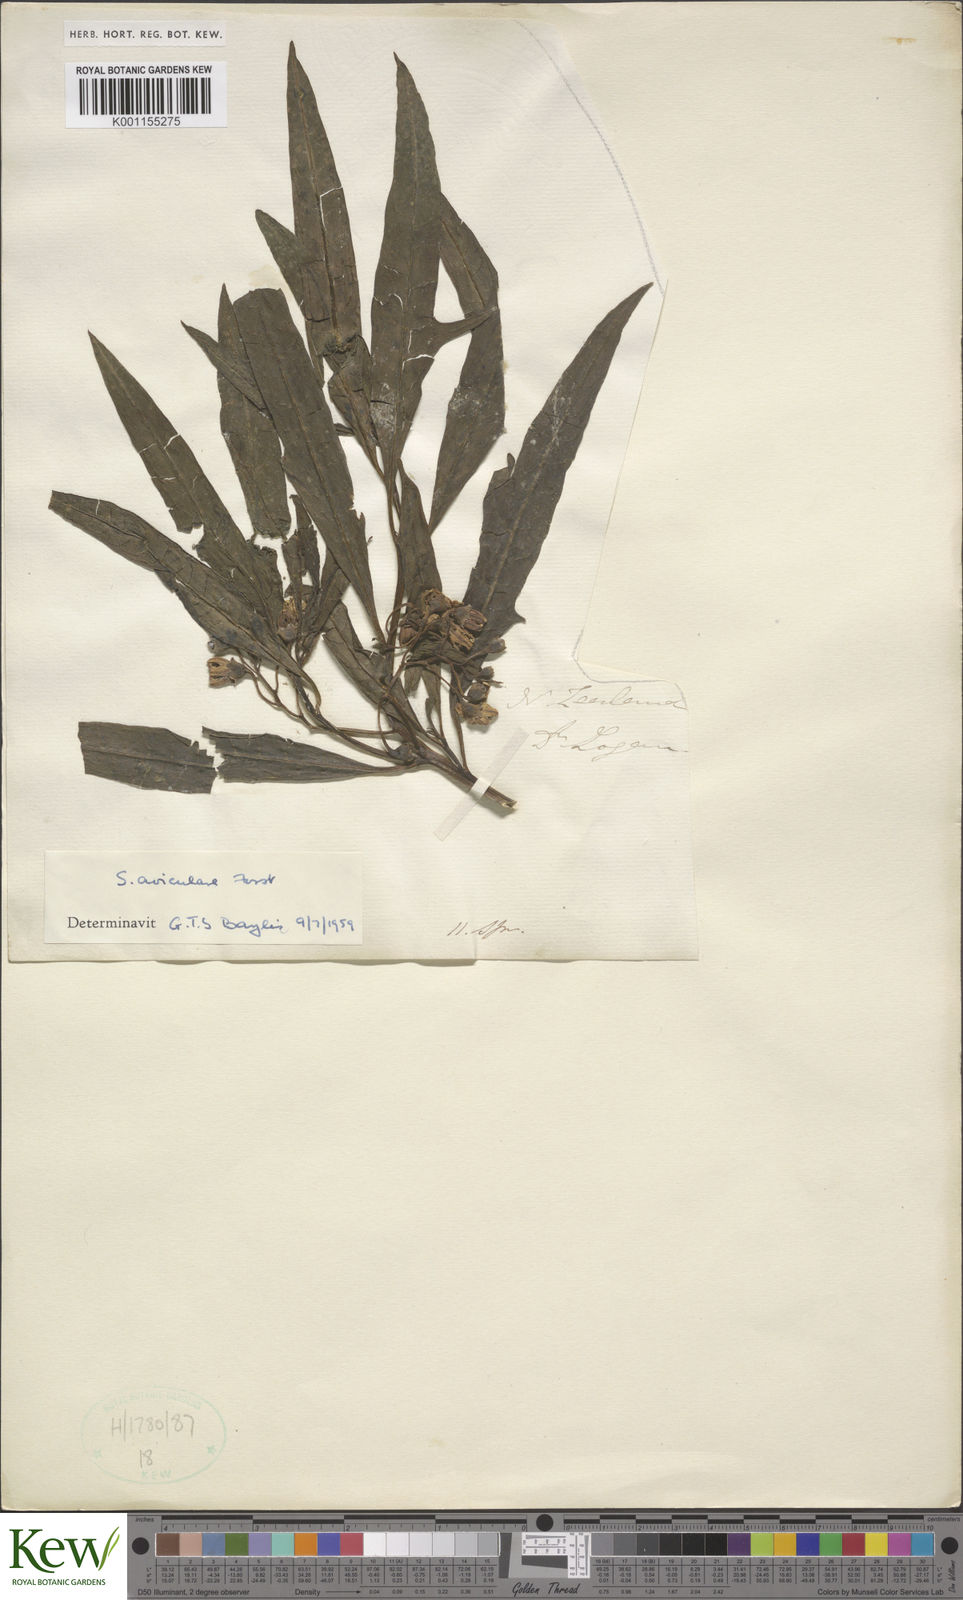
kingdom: Plantae
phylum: Tracheophyta
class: Magnoliopsida
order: Solanales
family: Solanaceae
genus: Solanum
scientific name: Solanum aviculare
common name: New zealand nightshade
